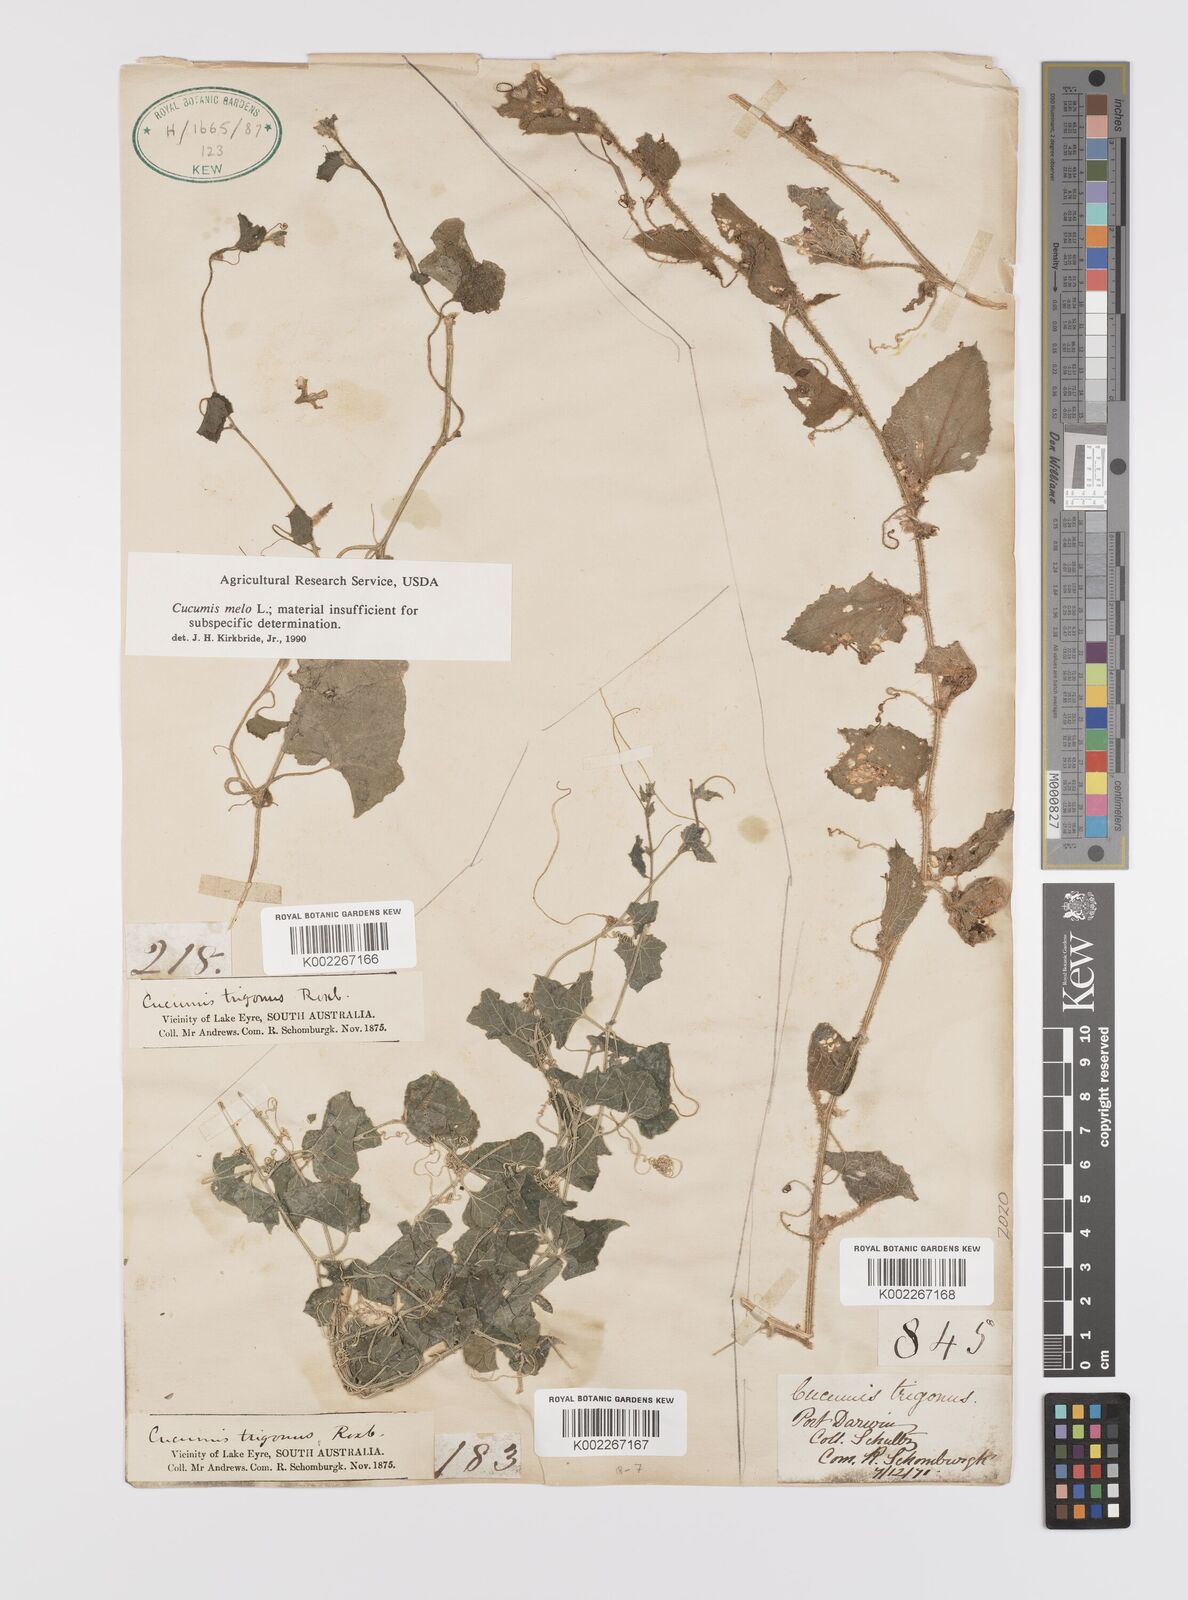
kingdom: Plantae
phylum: Tracheophyta
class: Magnoliopsida
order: Cucurbitales
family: Cucurbitaceae
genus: Cucumis
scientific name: Cucumis melo
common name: Melon
